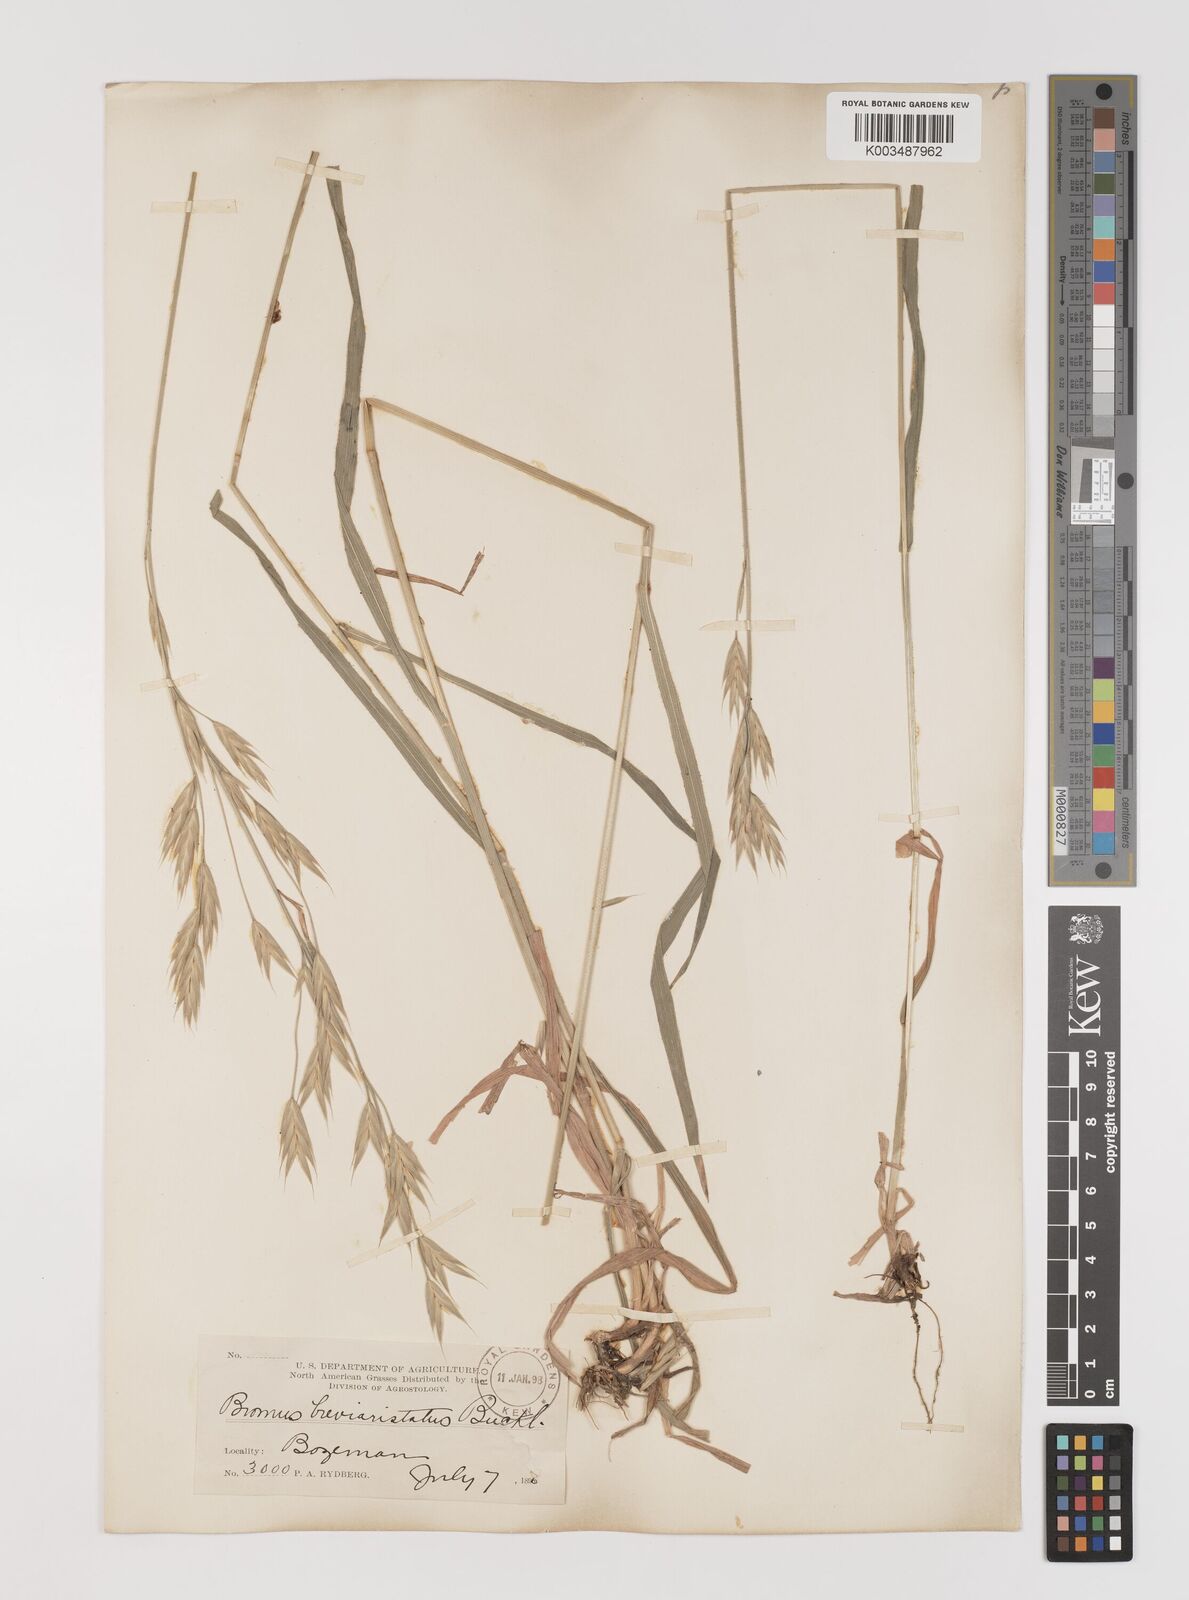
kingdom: Plantae
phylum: Tracheophyta
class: Liliopsida
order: Poales
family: Poaceae
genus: Bromus
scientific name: Bromus marginatus
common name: Western brome
